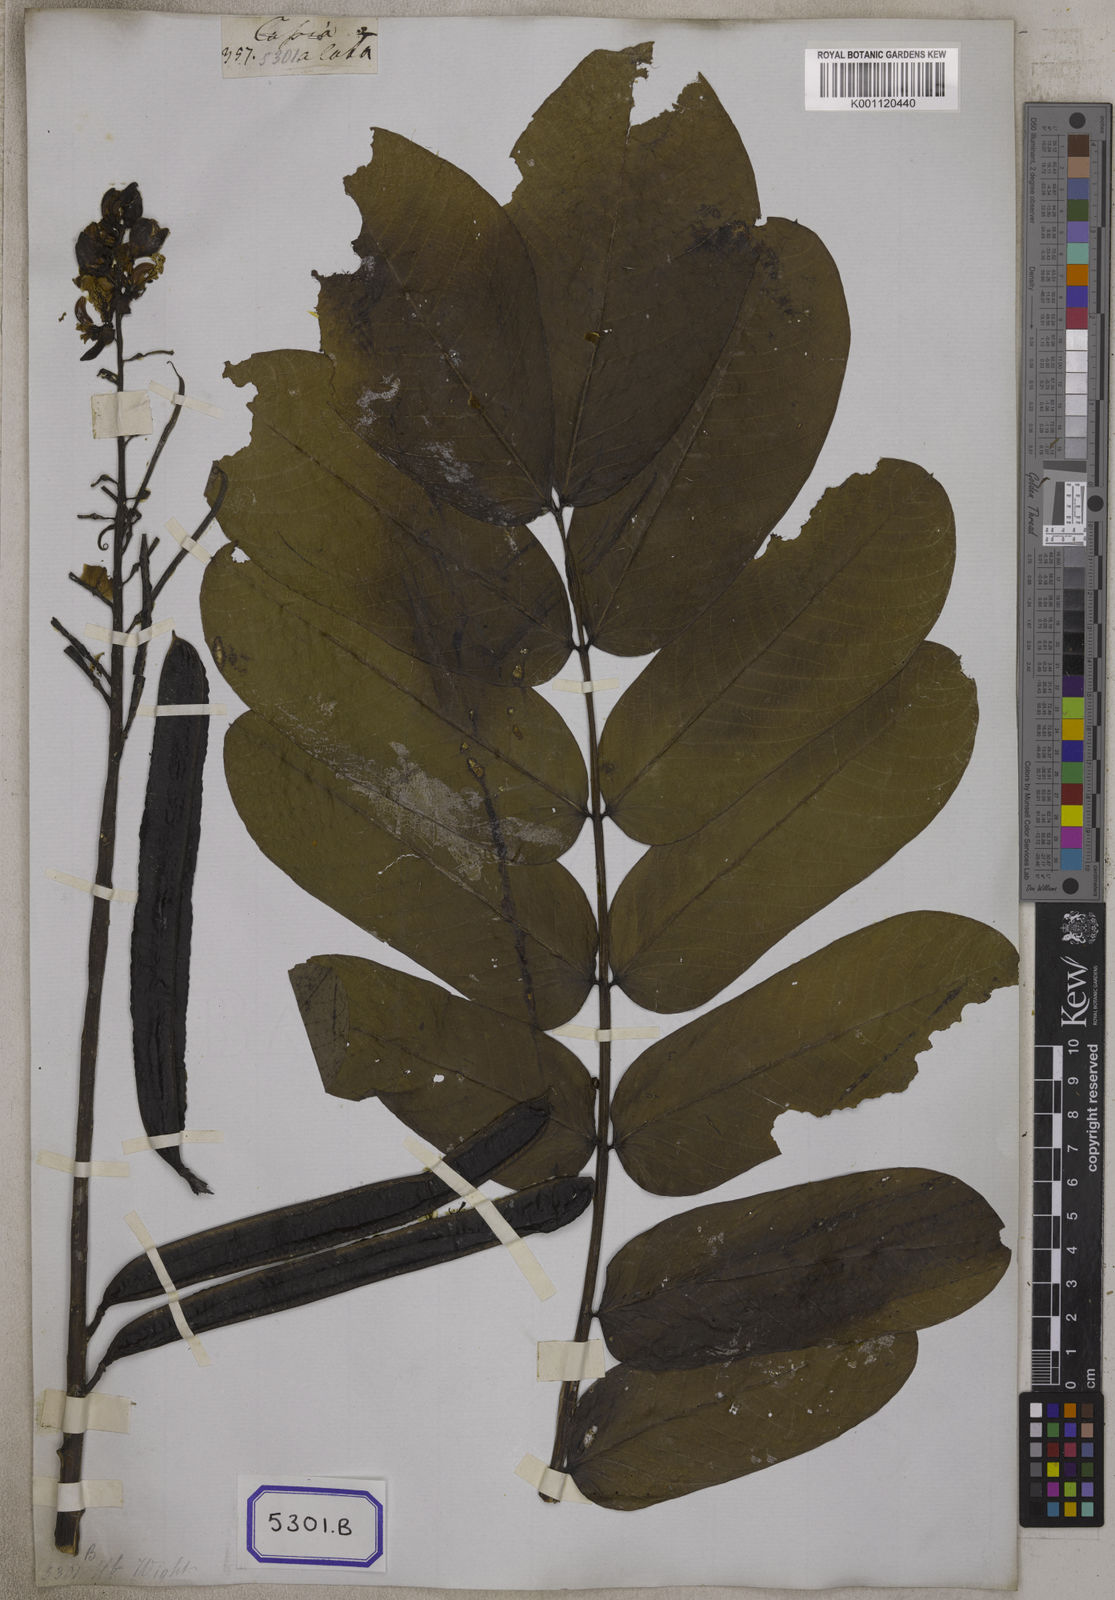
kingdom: Plantae
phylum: Tracheophyta
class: Magnoliopsida
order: Fabales
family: Fabaceae
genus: Senna
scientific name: Senna alata
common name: Emperor's candlesticks
